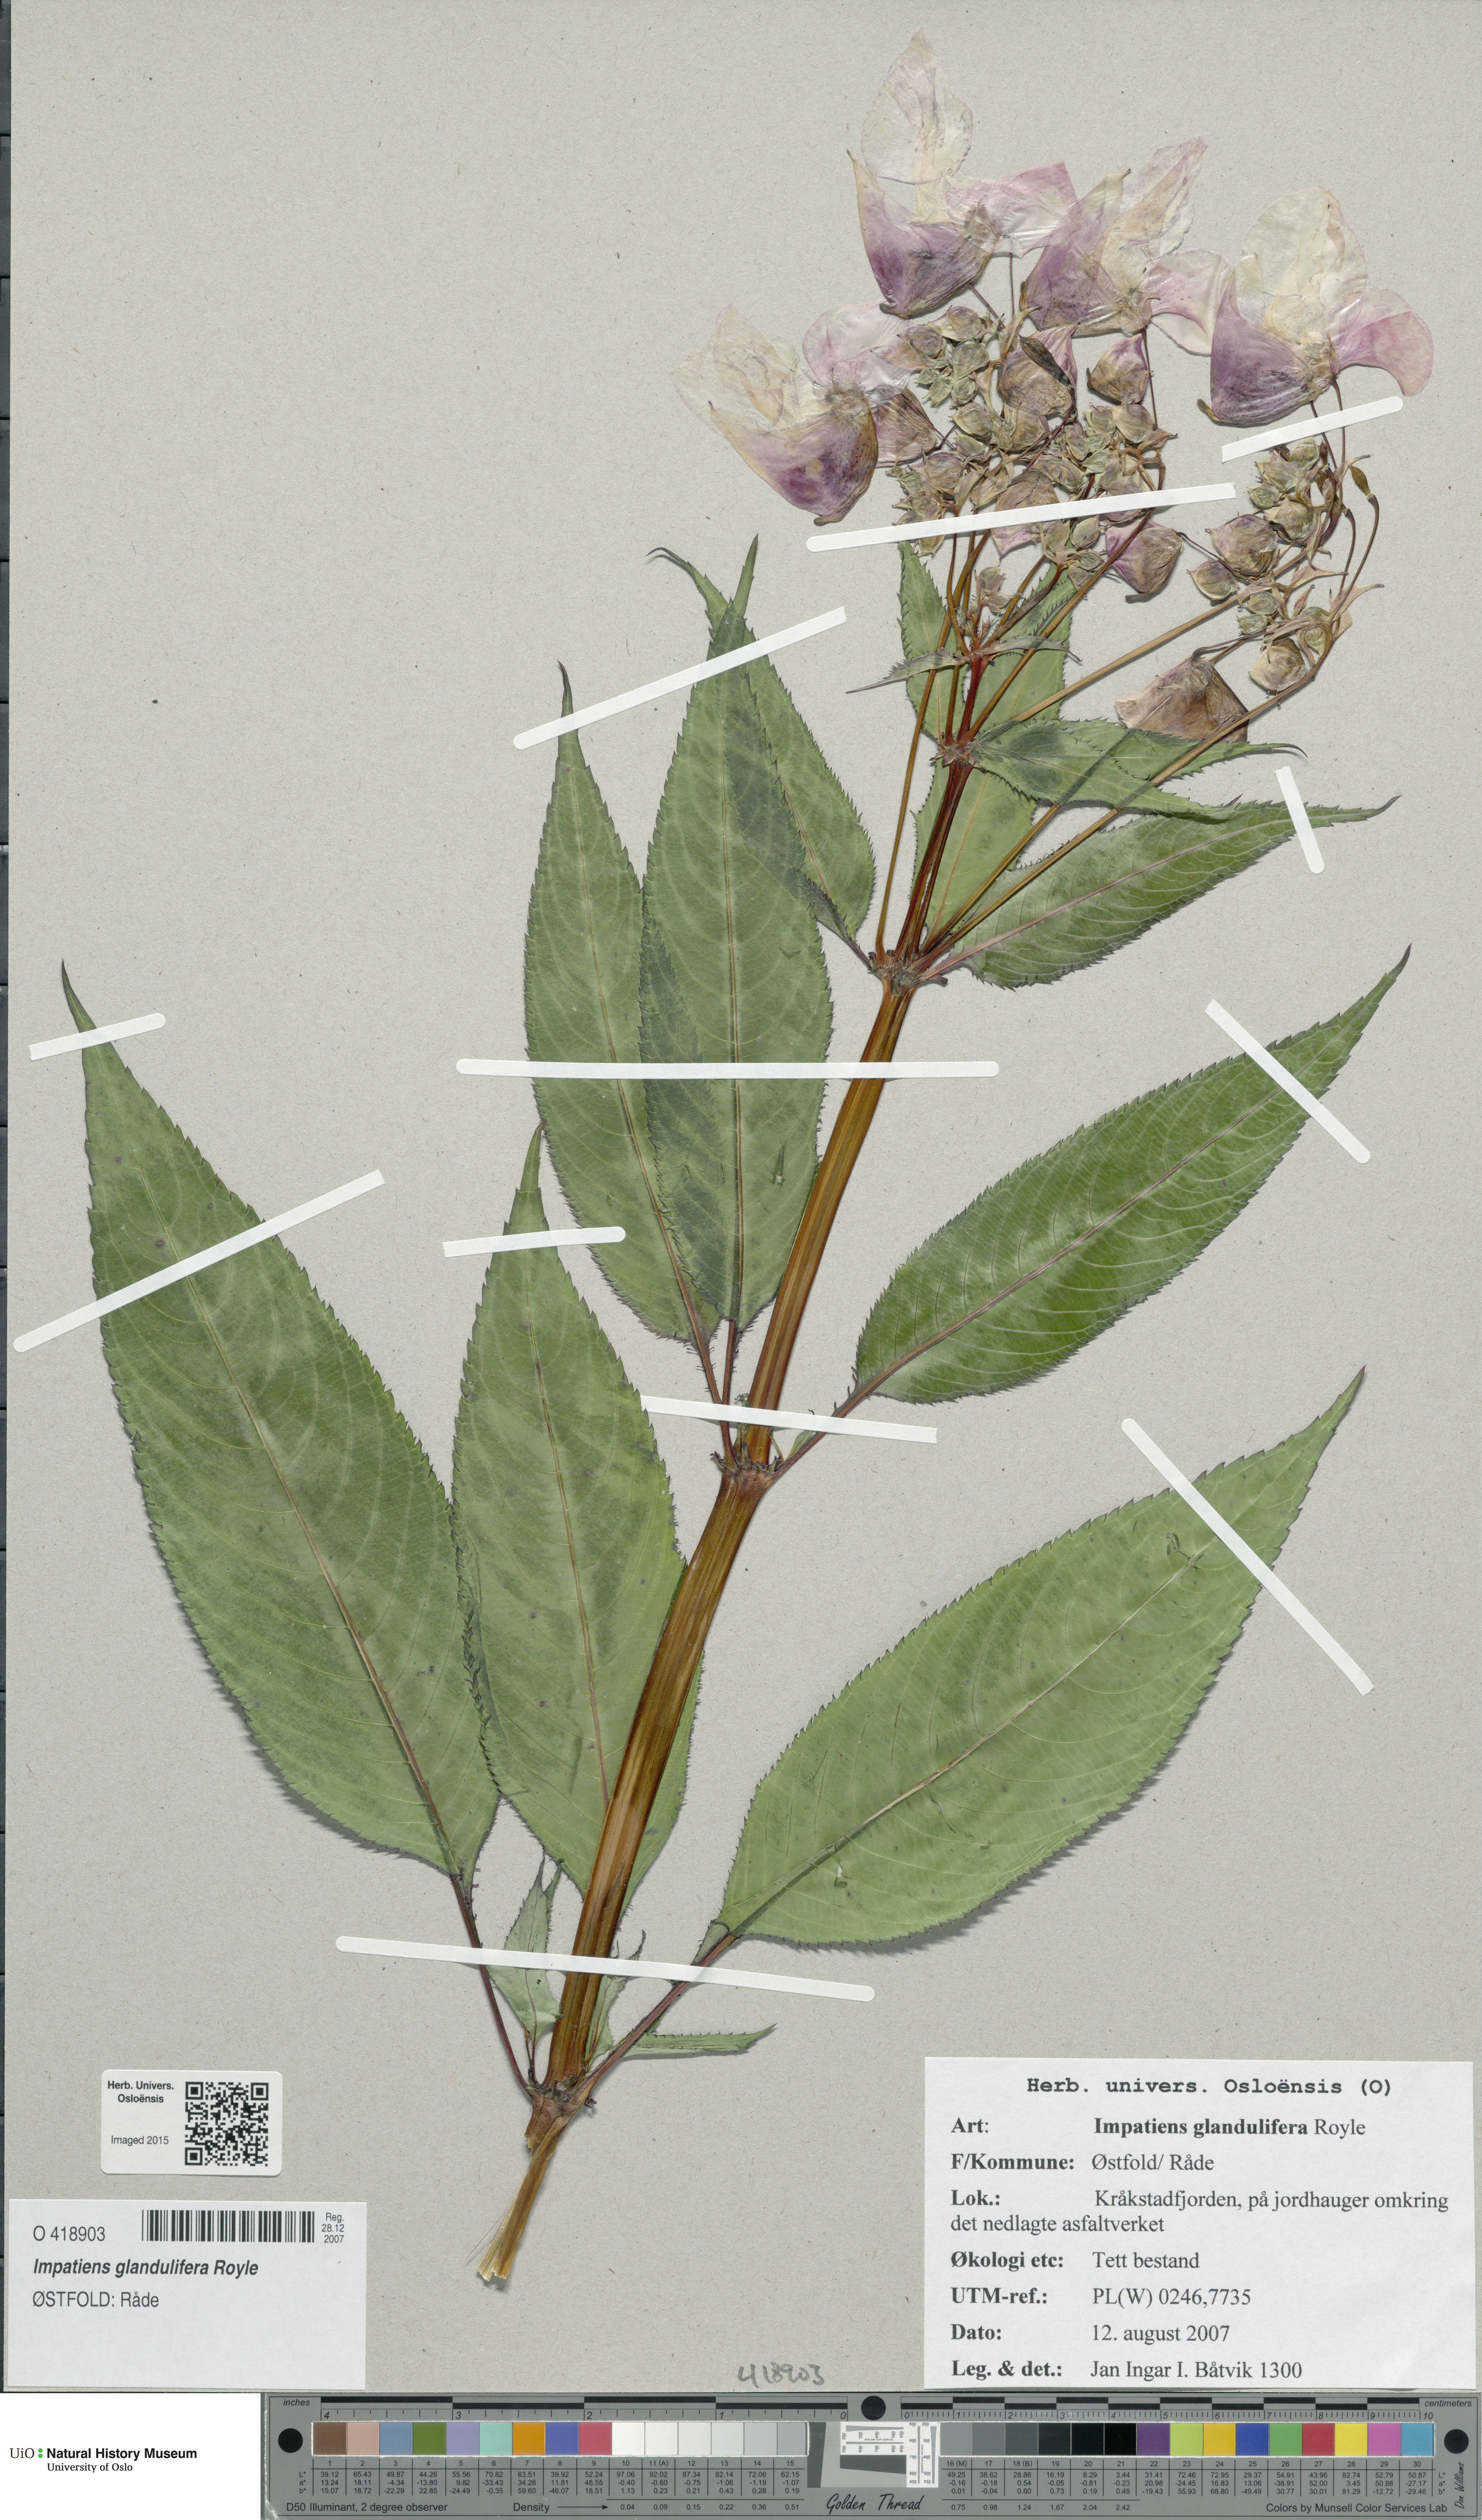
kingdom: Plantae
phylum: Tracheophyta
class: Magnoliopsida
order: Ericales
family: Balsaminaceae
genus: Impatiens
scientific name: Impatiens glandulifera
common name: Himalayan balsam
